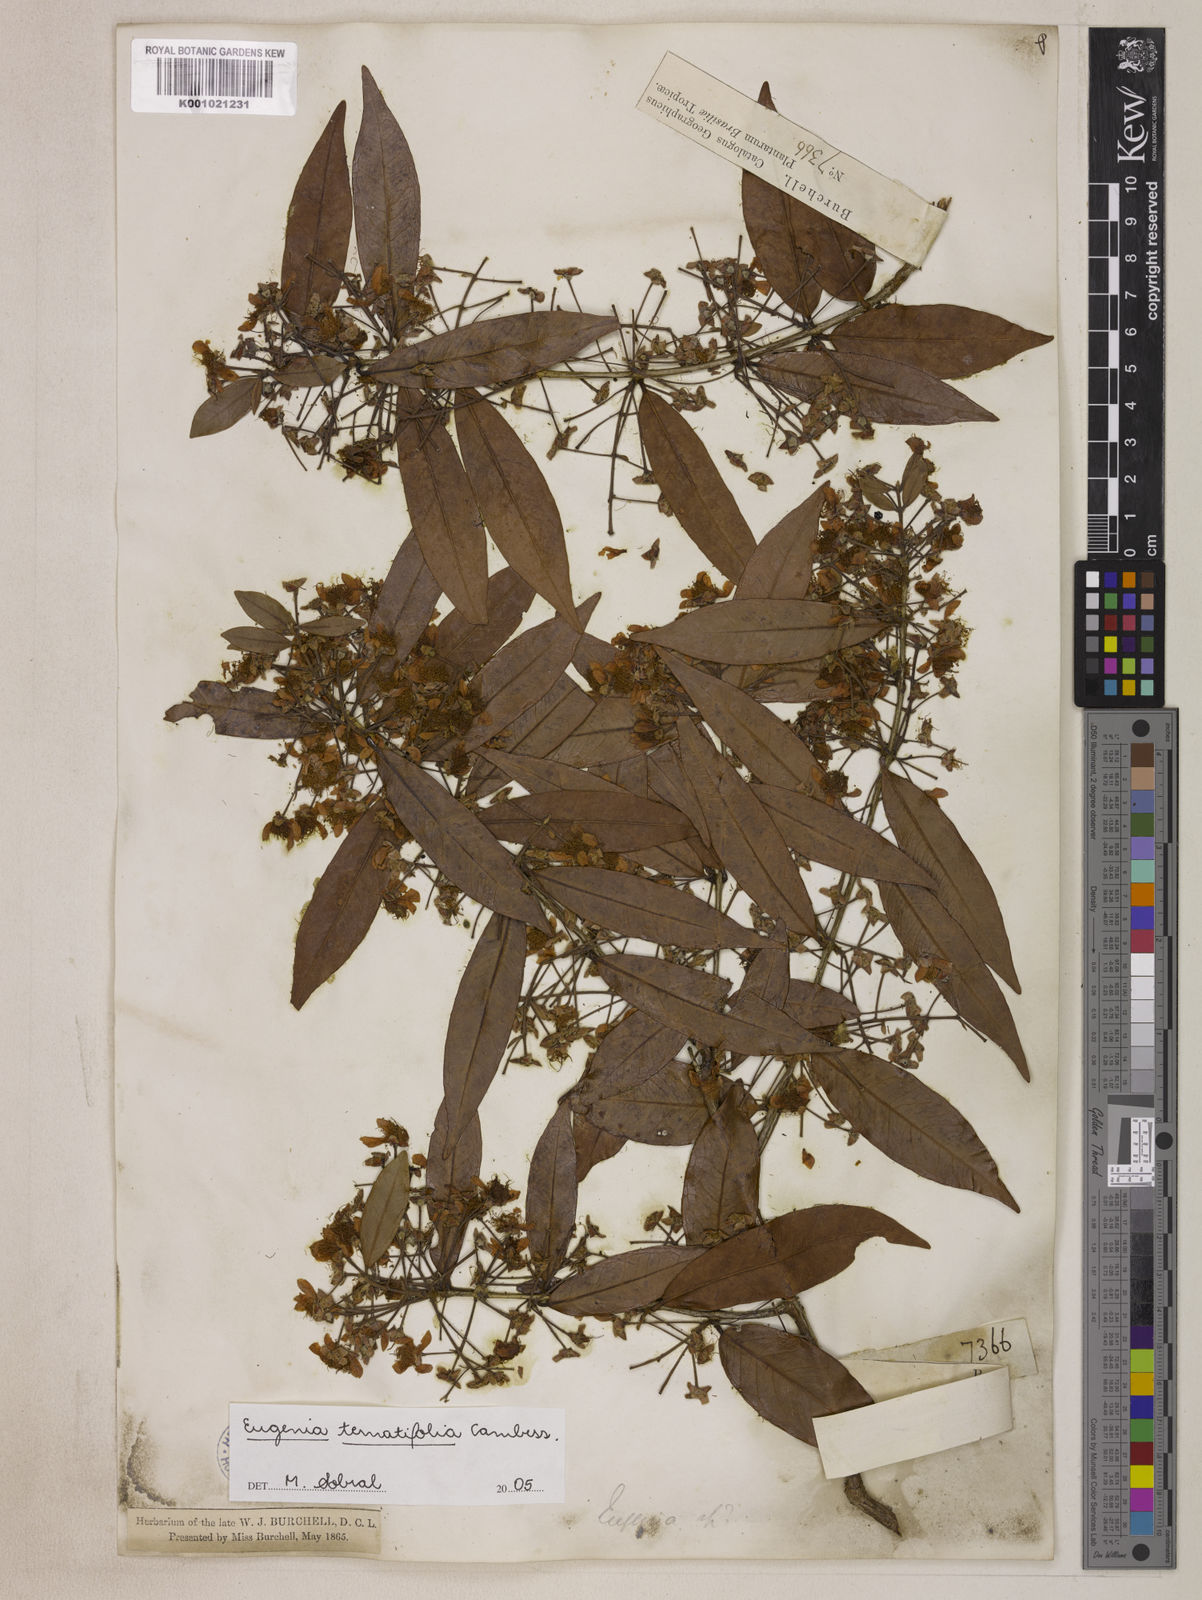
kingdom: Plantae
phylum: Tracheophyta
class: Magnoliopsida
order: Myrtales
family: Myrtaceae
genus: Eugenia
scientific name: Eugenia ternatifolia
